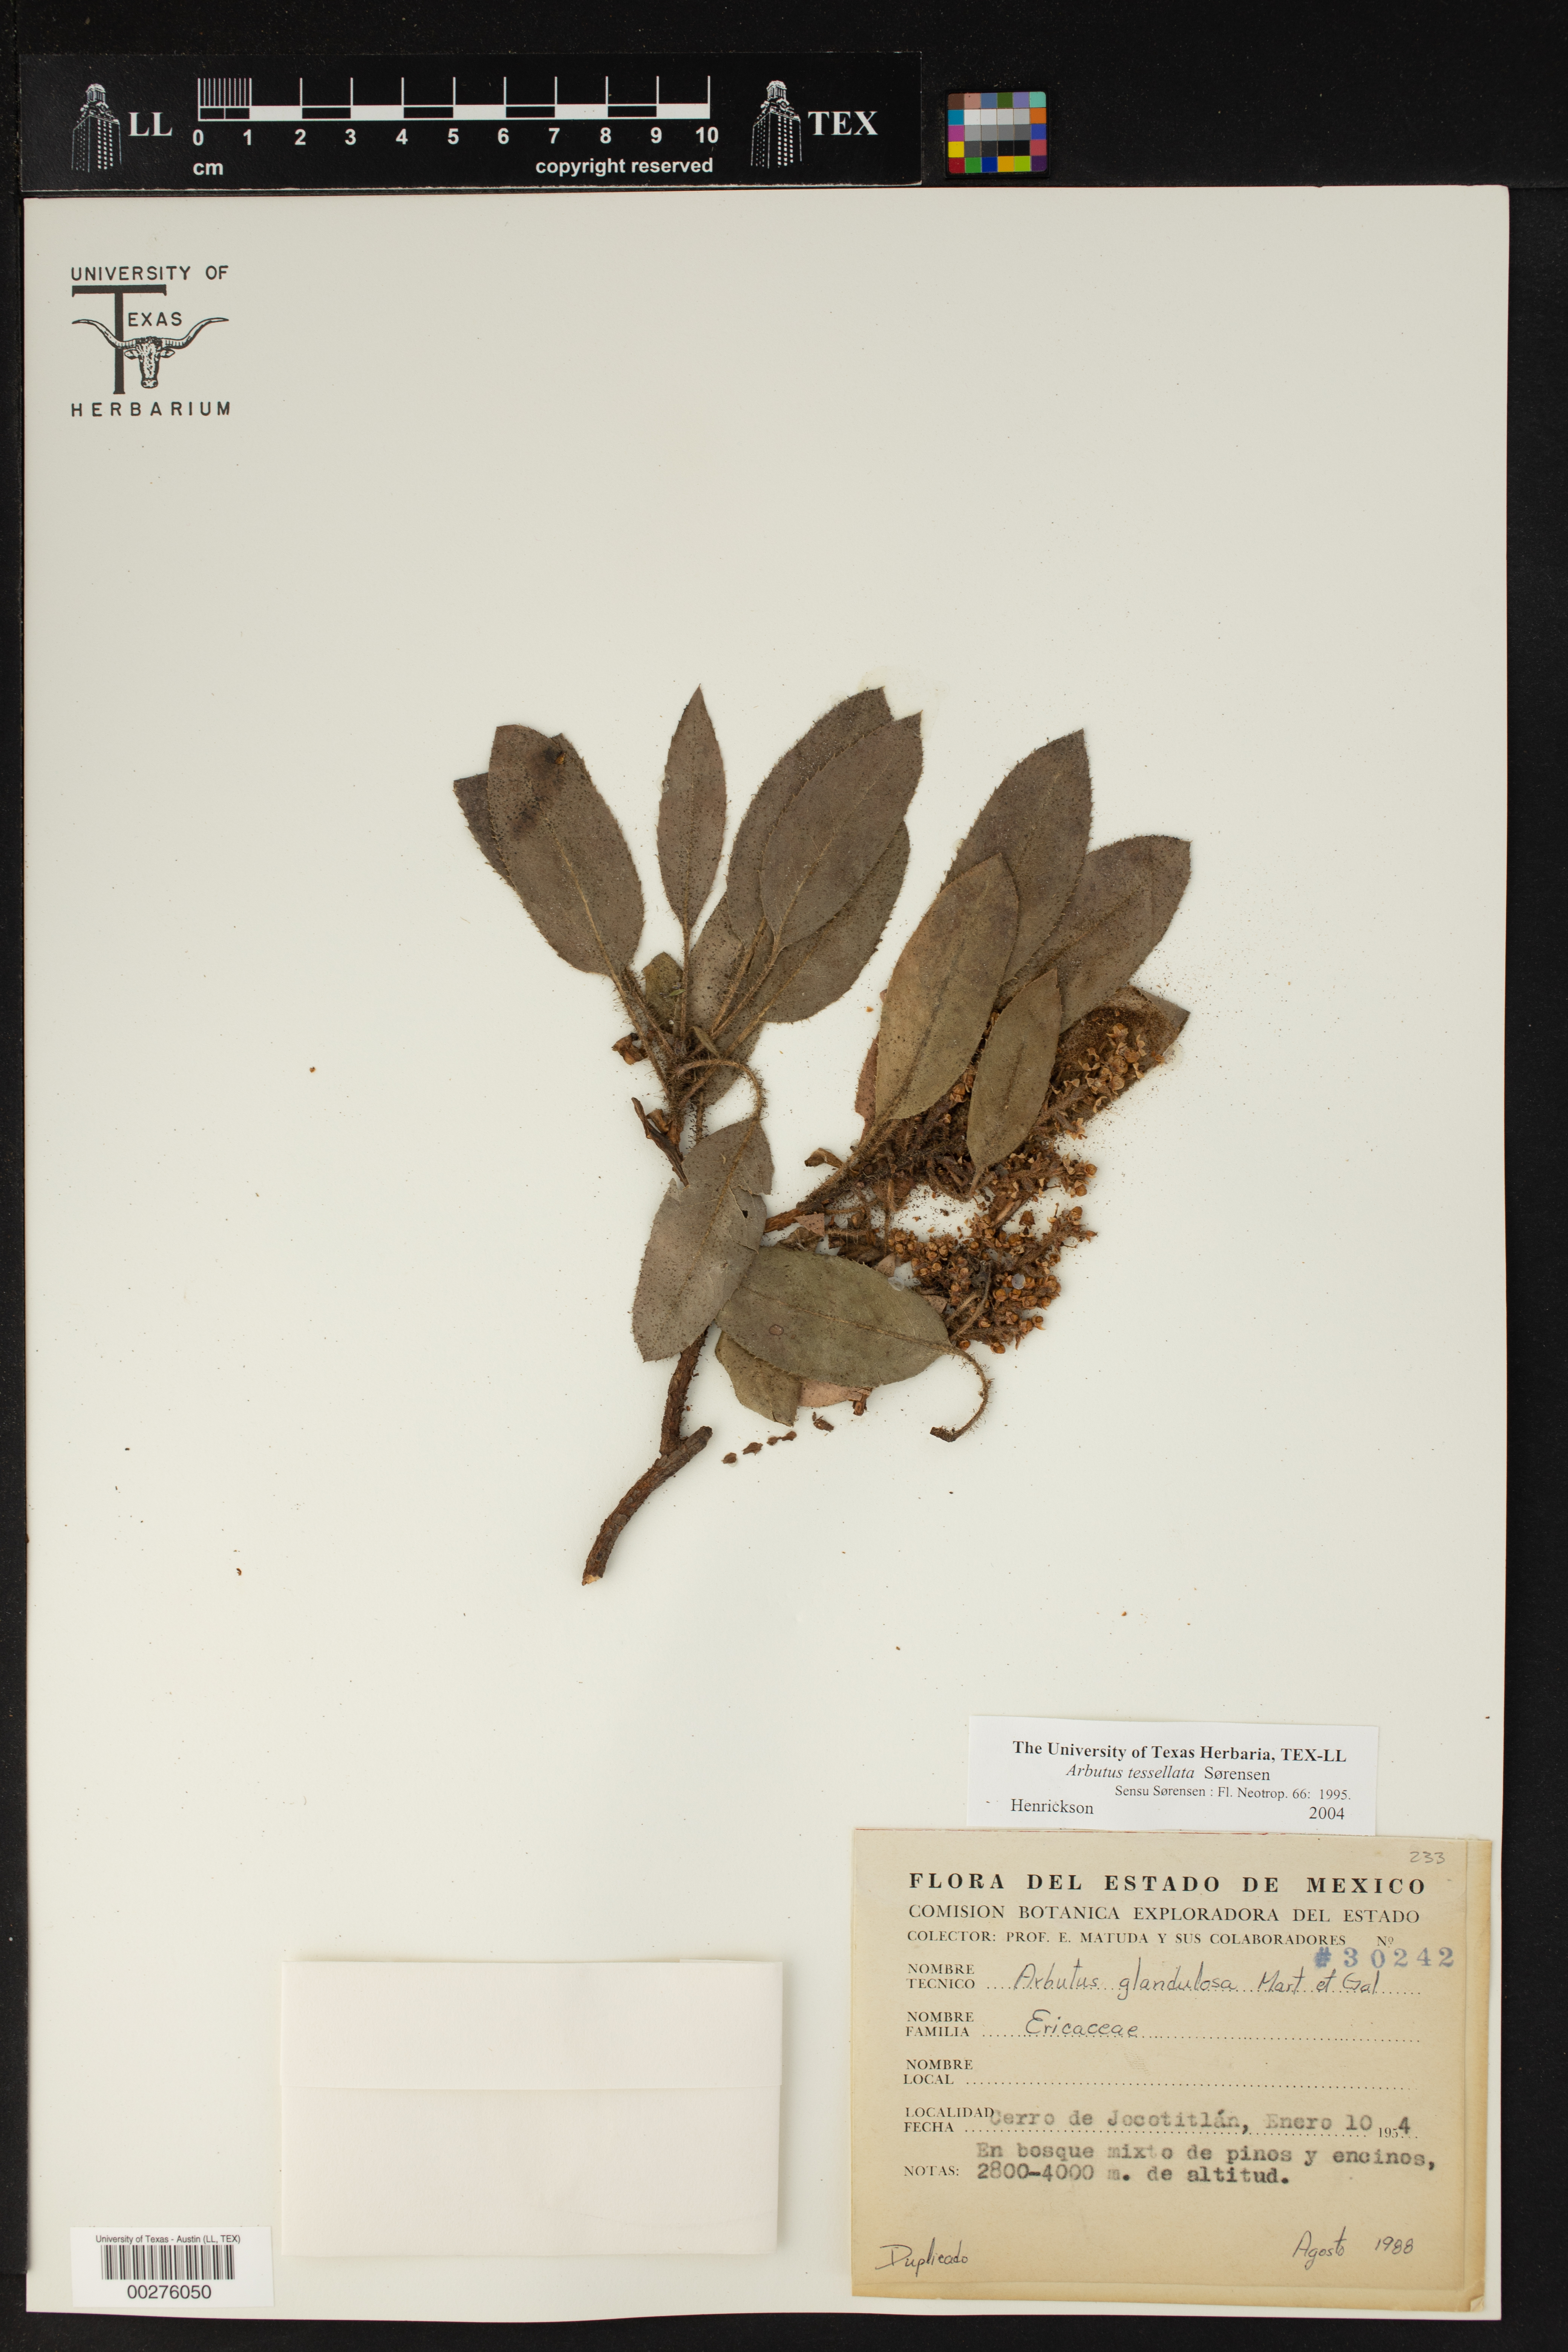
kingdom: Plantae
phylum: Tracheophyta
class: Magnoliopsida
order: Ericales
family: Ericaceae
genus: Arbutus
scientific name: Arbutus xalapensis
